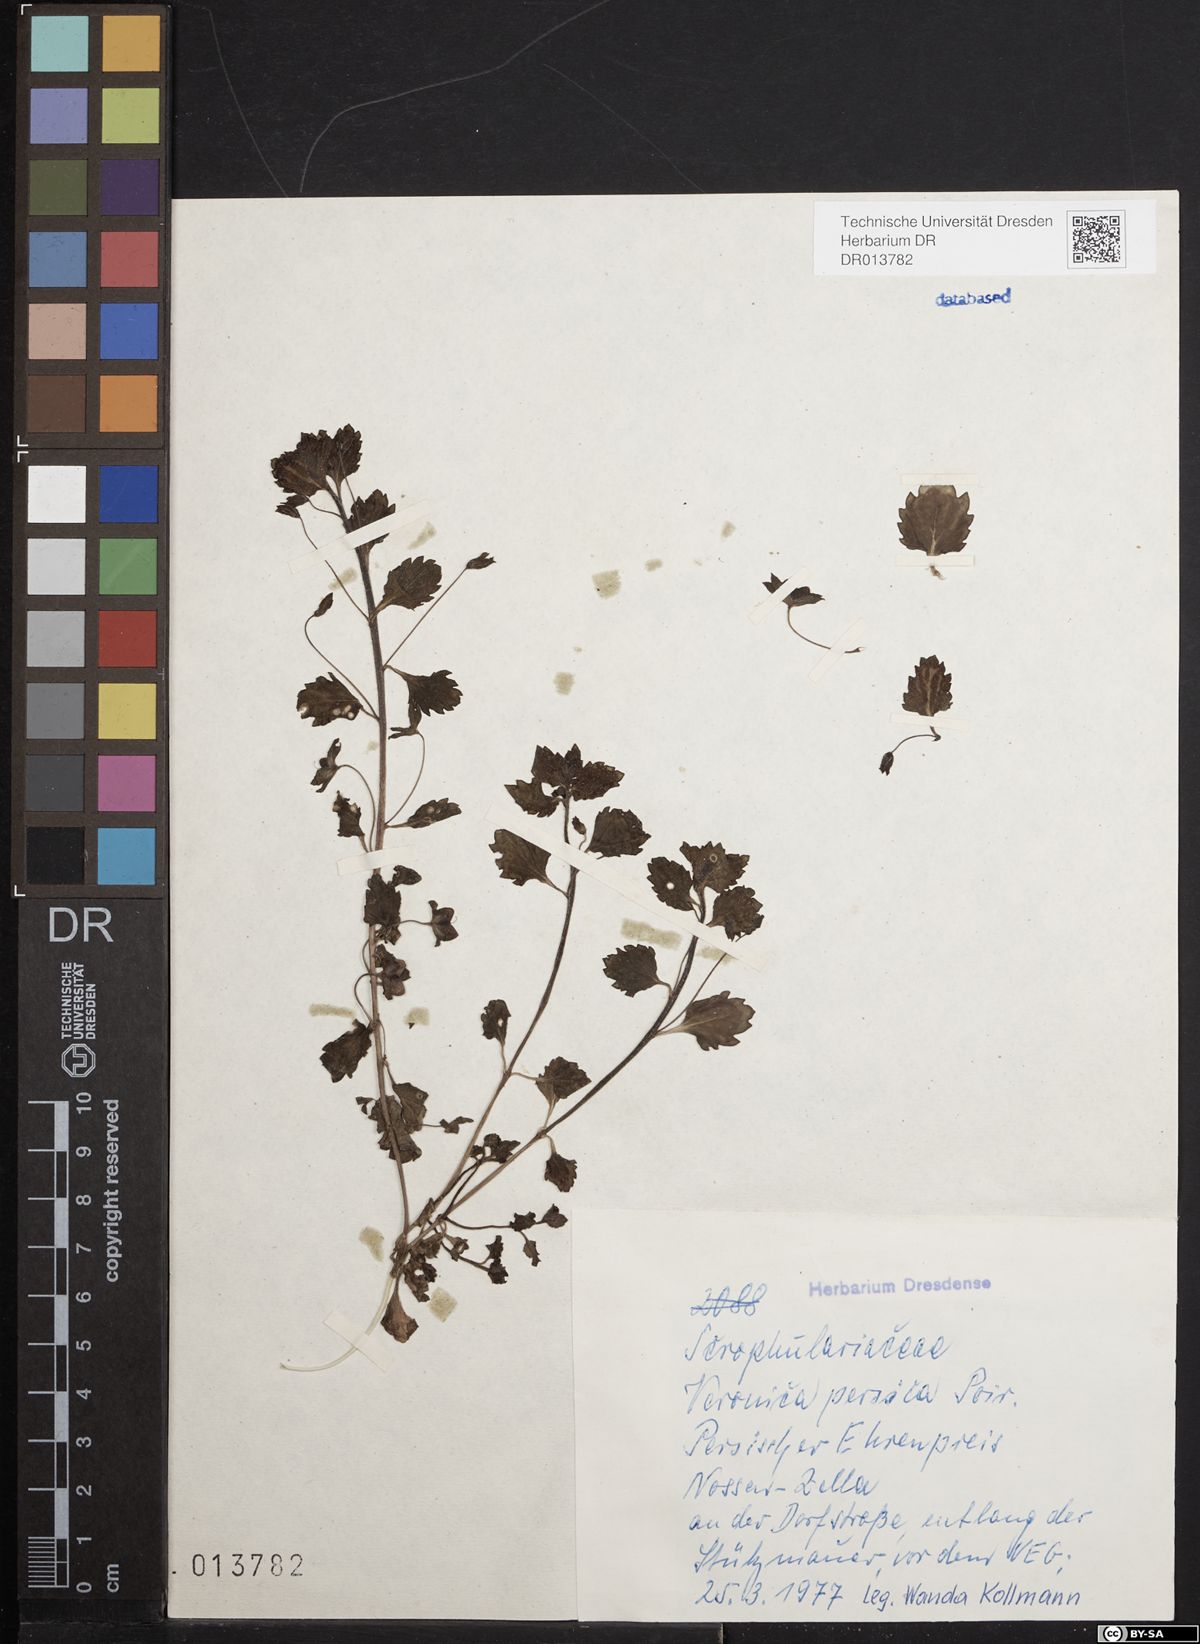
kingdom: Plantae
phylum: Tracheophyta
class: Magnoliopsida
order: Lamiales
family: Plantaginaceae
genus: Veronica
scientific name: Veronica persica
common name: Common field-speedwell
